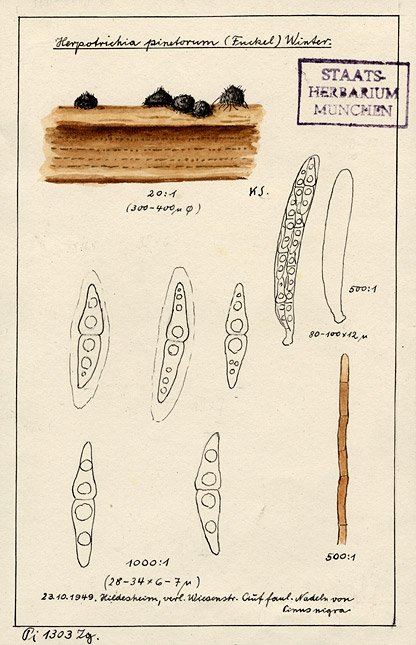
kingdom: Fungi
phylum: Ascomycota
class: Dothideomycetes
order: Pleosporales
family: Melanommataceae
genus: Herpotrichia
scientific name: Herpotrichia pinetorum
